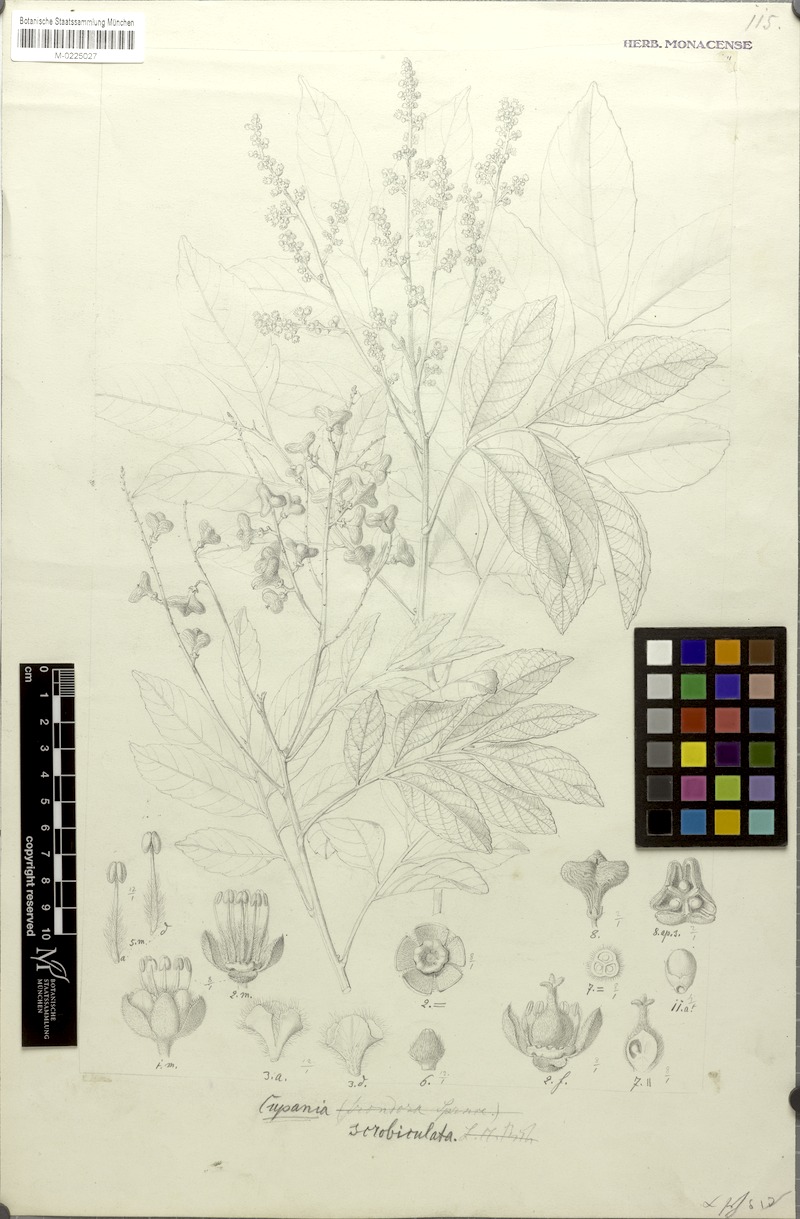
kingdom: Plantae
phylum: Tracheophyta
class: Magnoliopsida
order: Sapindales
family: Sapindaceae
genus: Cupania
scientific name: Cupania scrobiculata
